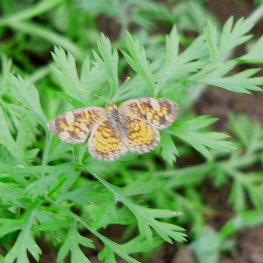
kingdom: Animalia
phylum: Arthropoda
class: Insecta
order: Lepidoptera
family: Nymphalidae
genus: Phyciodes
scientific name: Phyciodes tharos
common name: Northern Crescent
